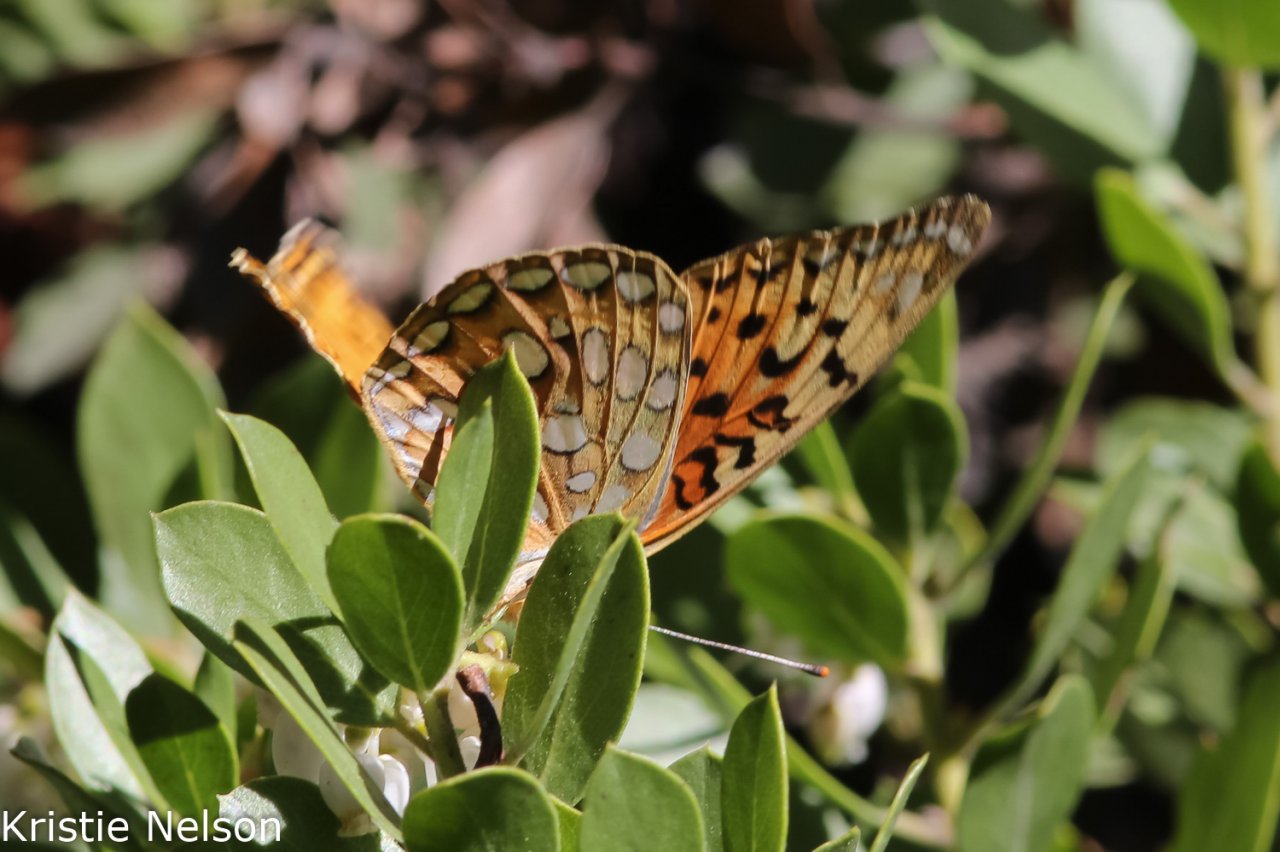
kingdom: Animalia
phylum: Arthropoda
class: Insecta
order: Lepidoptera
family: Nymphalidae
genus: Speyeria
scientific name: Speyeria coronis
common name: Coronis Fritillary
